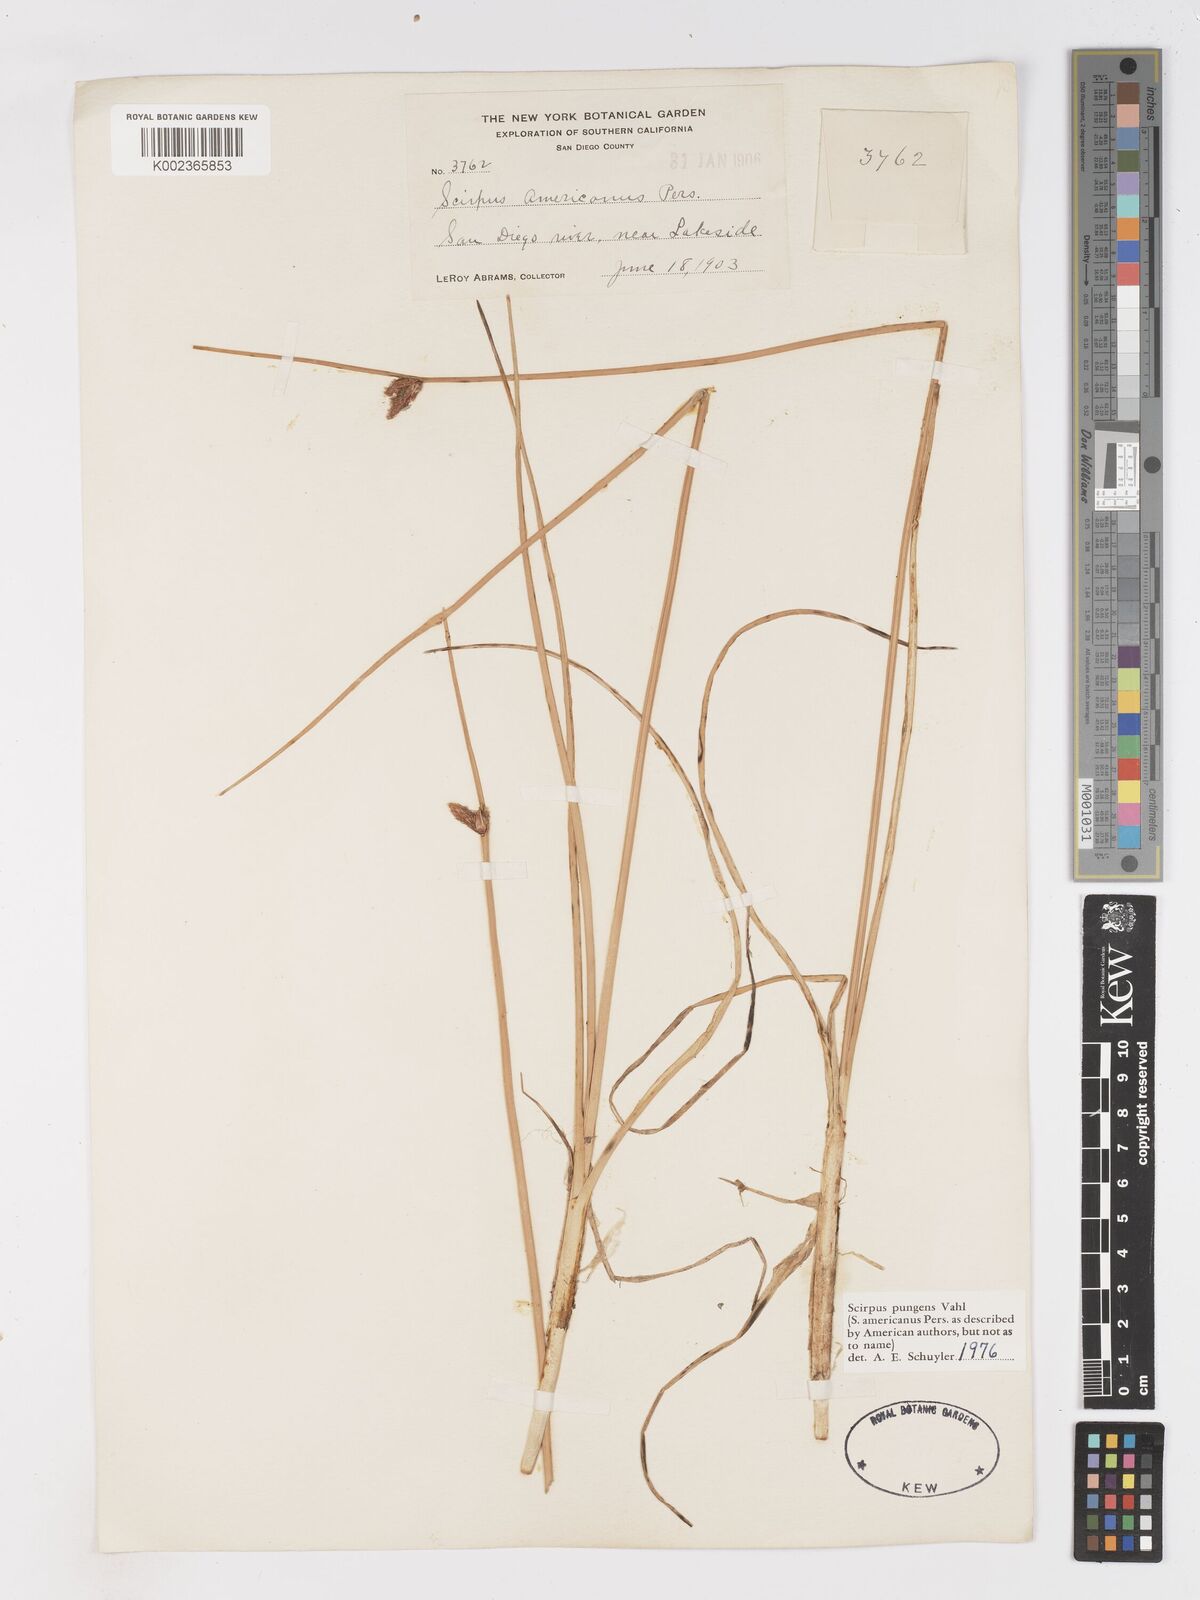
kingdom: Plantae
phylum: Tracheophyta
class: Liliopsida
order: Poales
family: Cyperaceae
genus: Schoenoplectus
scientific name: Schoenoplectus pungens
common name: Sharp club-rush
